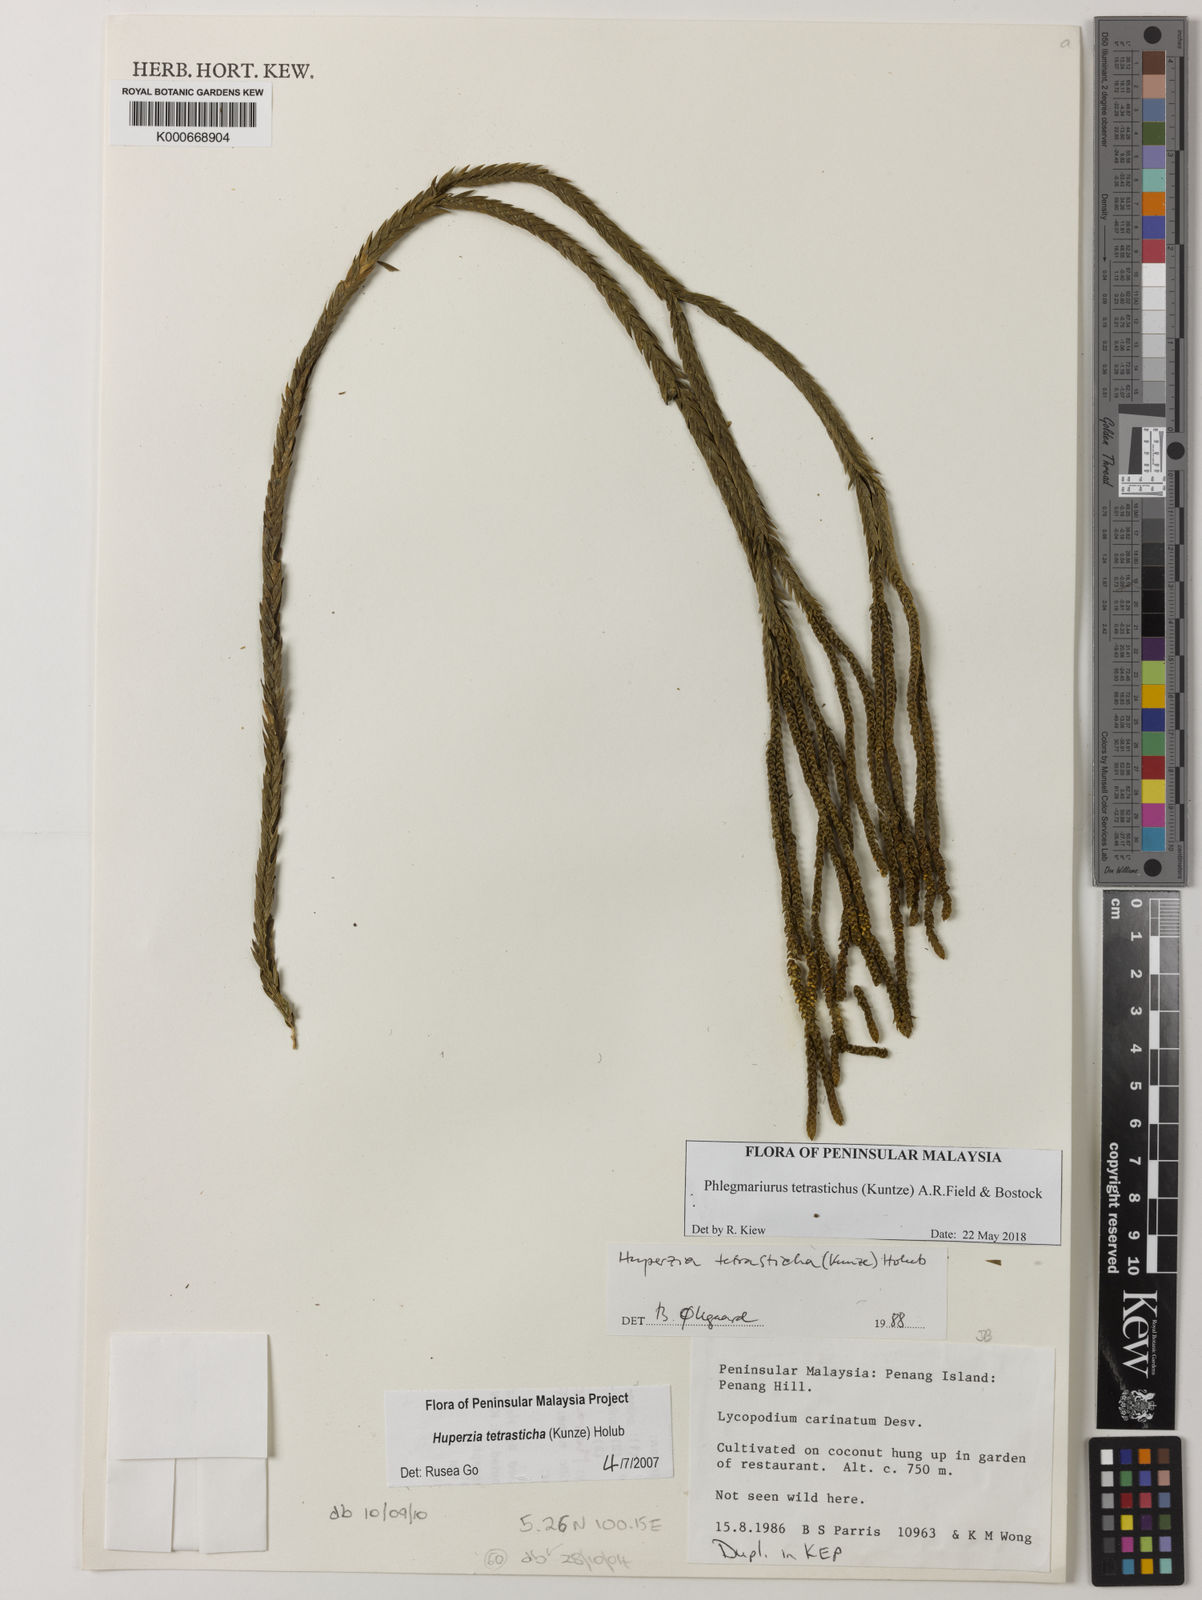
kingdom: Plantae
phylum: Tracheophyta
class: Lycopodiopsida
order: Lycopodiales
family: Lycopodiaceae
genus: Phlegmariurus
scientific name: Phlegmariurus tetrastichus
